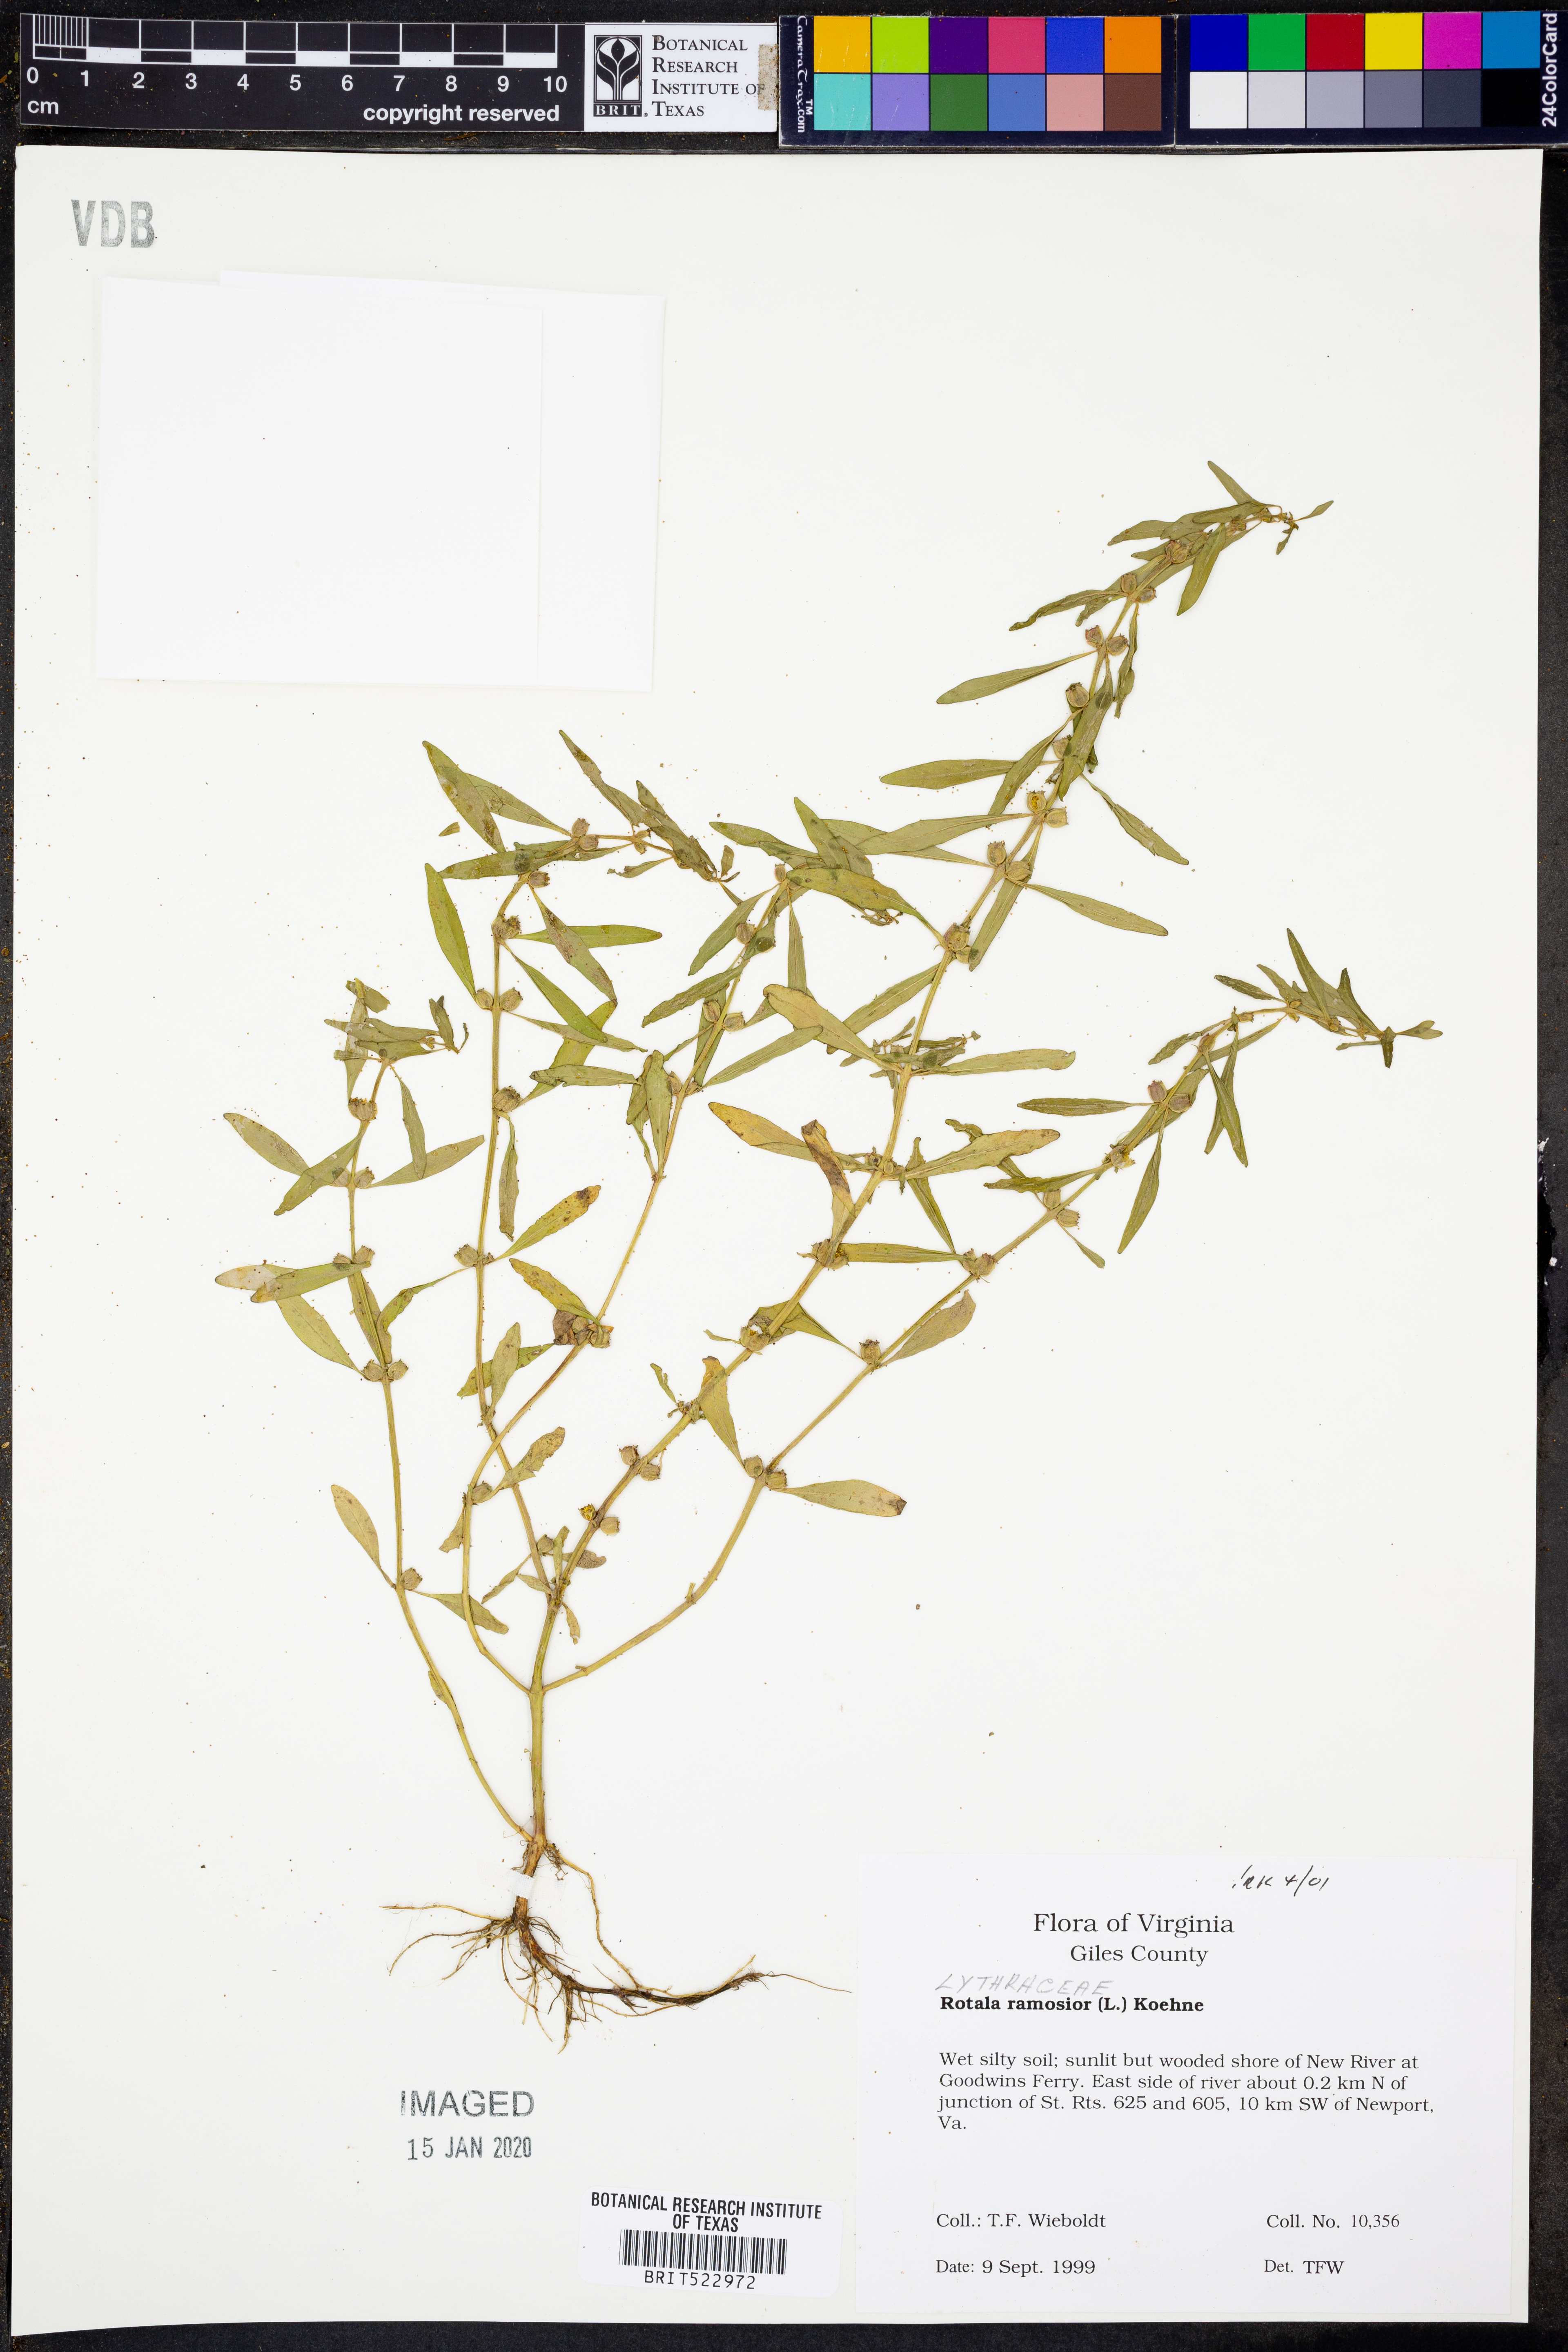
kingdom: Plantae
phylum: Tracheophyta
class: Magnoliopsida
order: Myrtales
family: Lythraceae
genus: Rotala
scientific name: Rotala ramosior
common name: Lowland rotala
